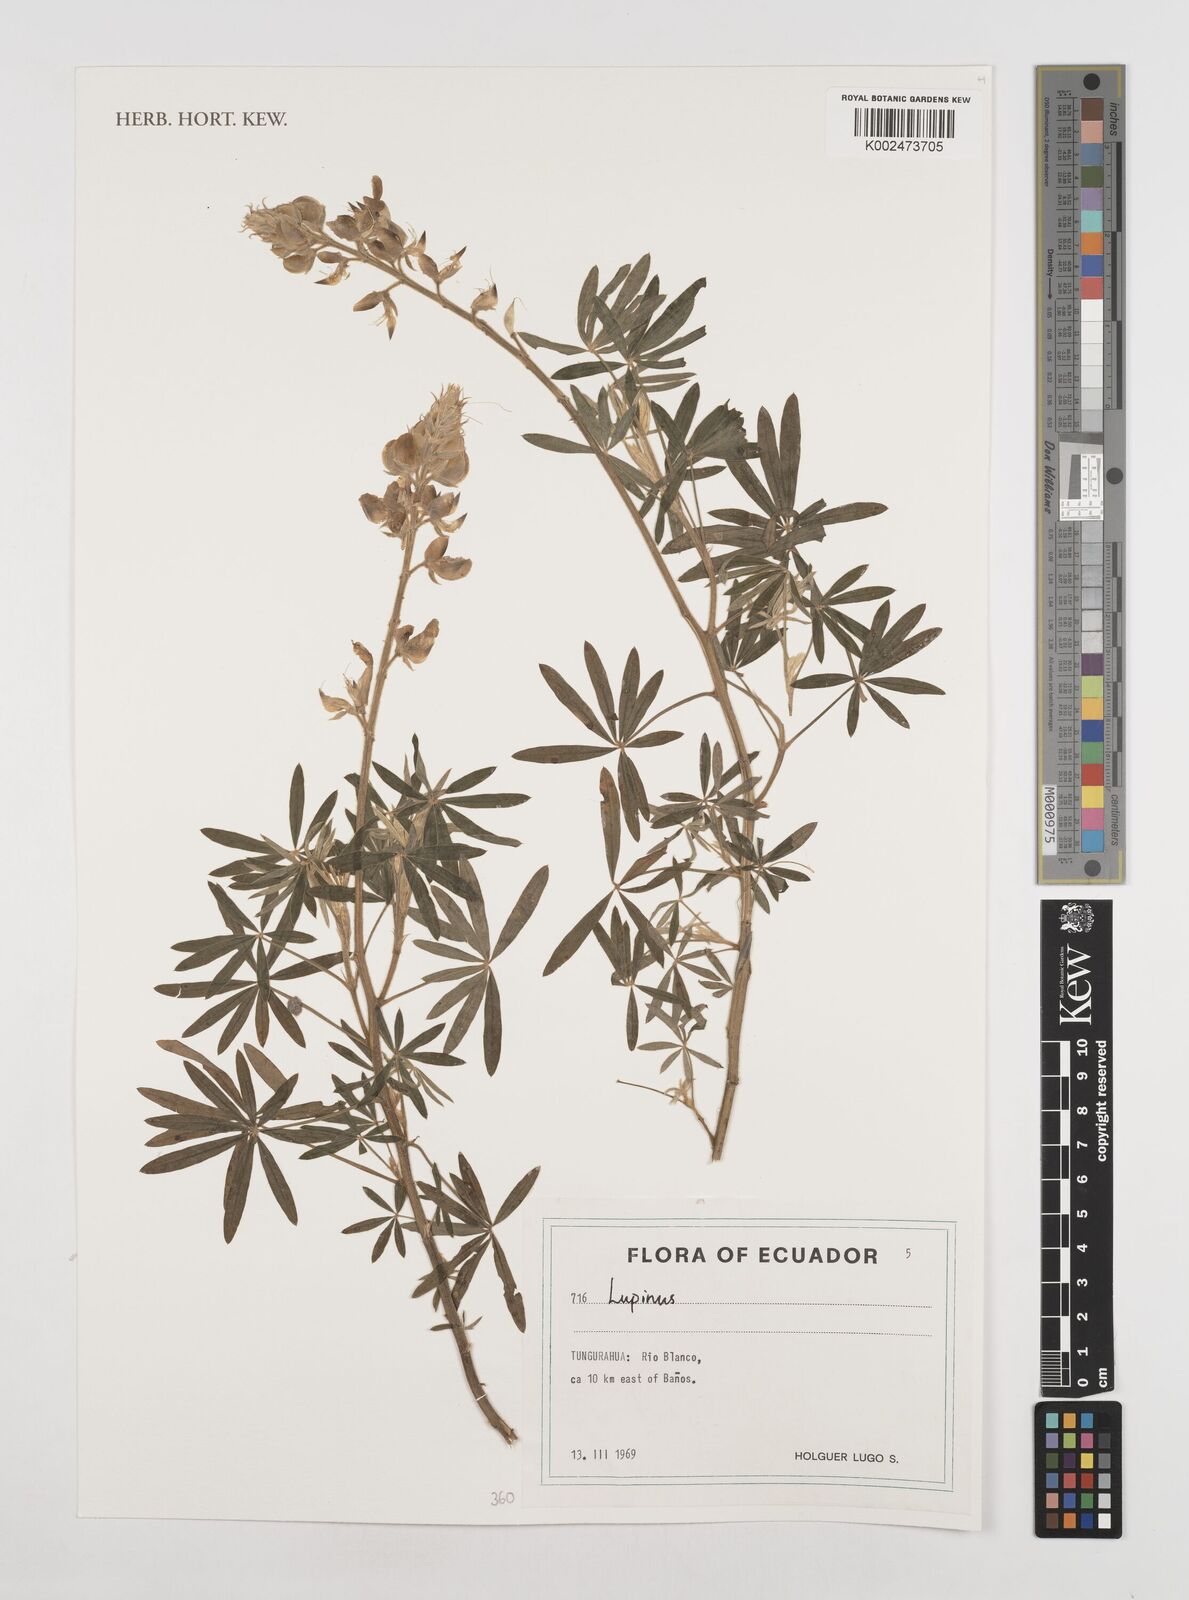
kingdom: Plantae
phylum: Tracheophyta
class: Magnoliopsida
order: Fabales
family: Fabaceae
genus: Lupinus
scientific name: Lupinus
